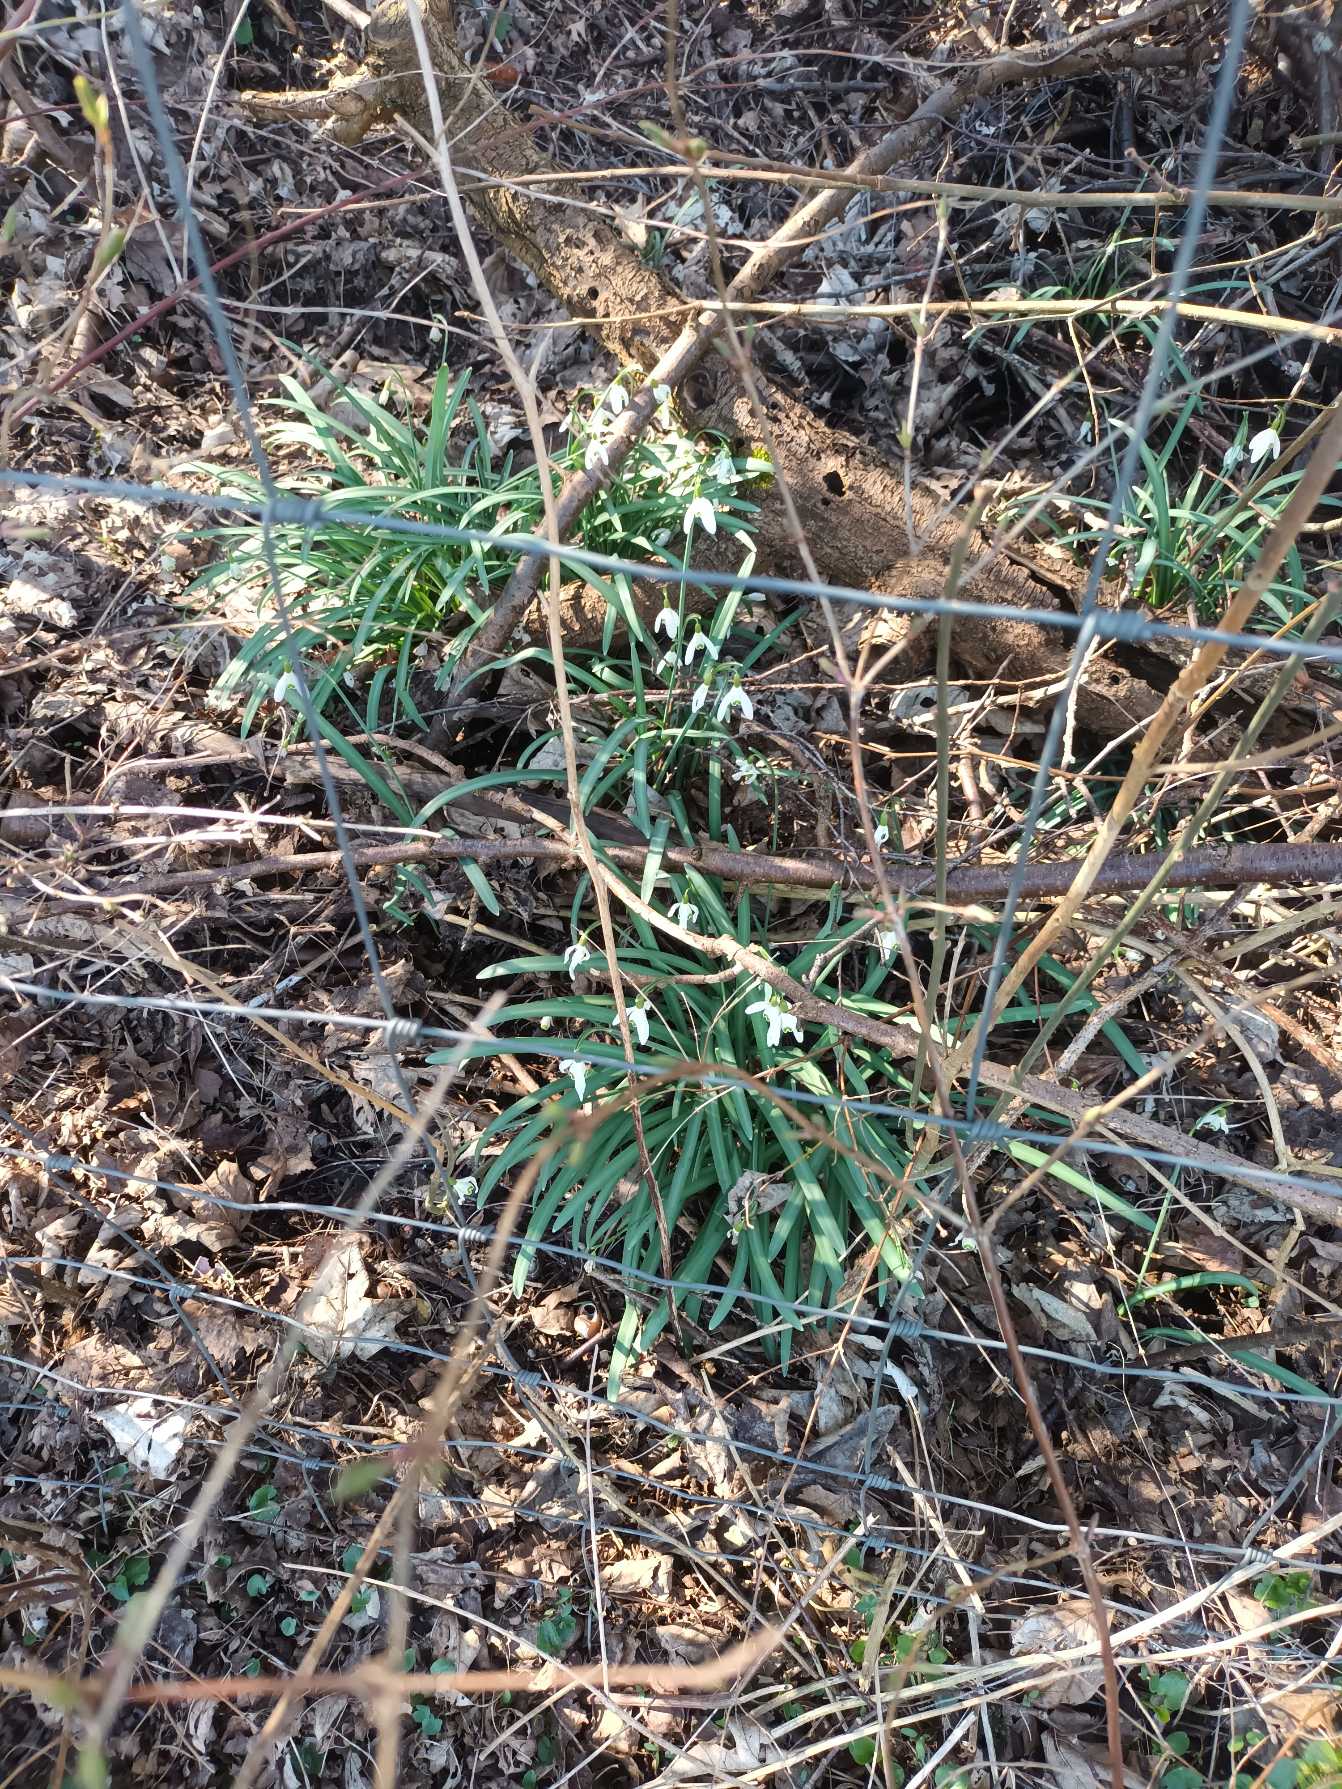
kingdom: Plantae
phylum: Tracheophyta
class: Liliopsida
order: Asparagales
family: Amaryllidaceae
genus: Galanthus
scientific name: Galanthus nivalis
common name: Vintergæk
